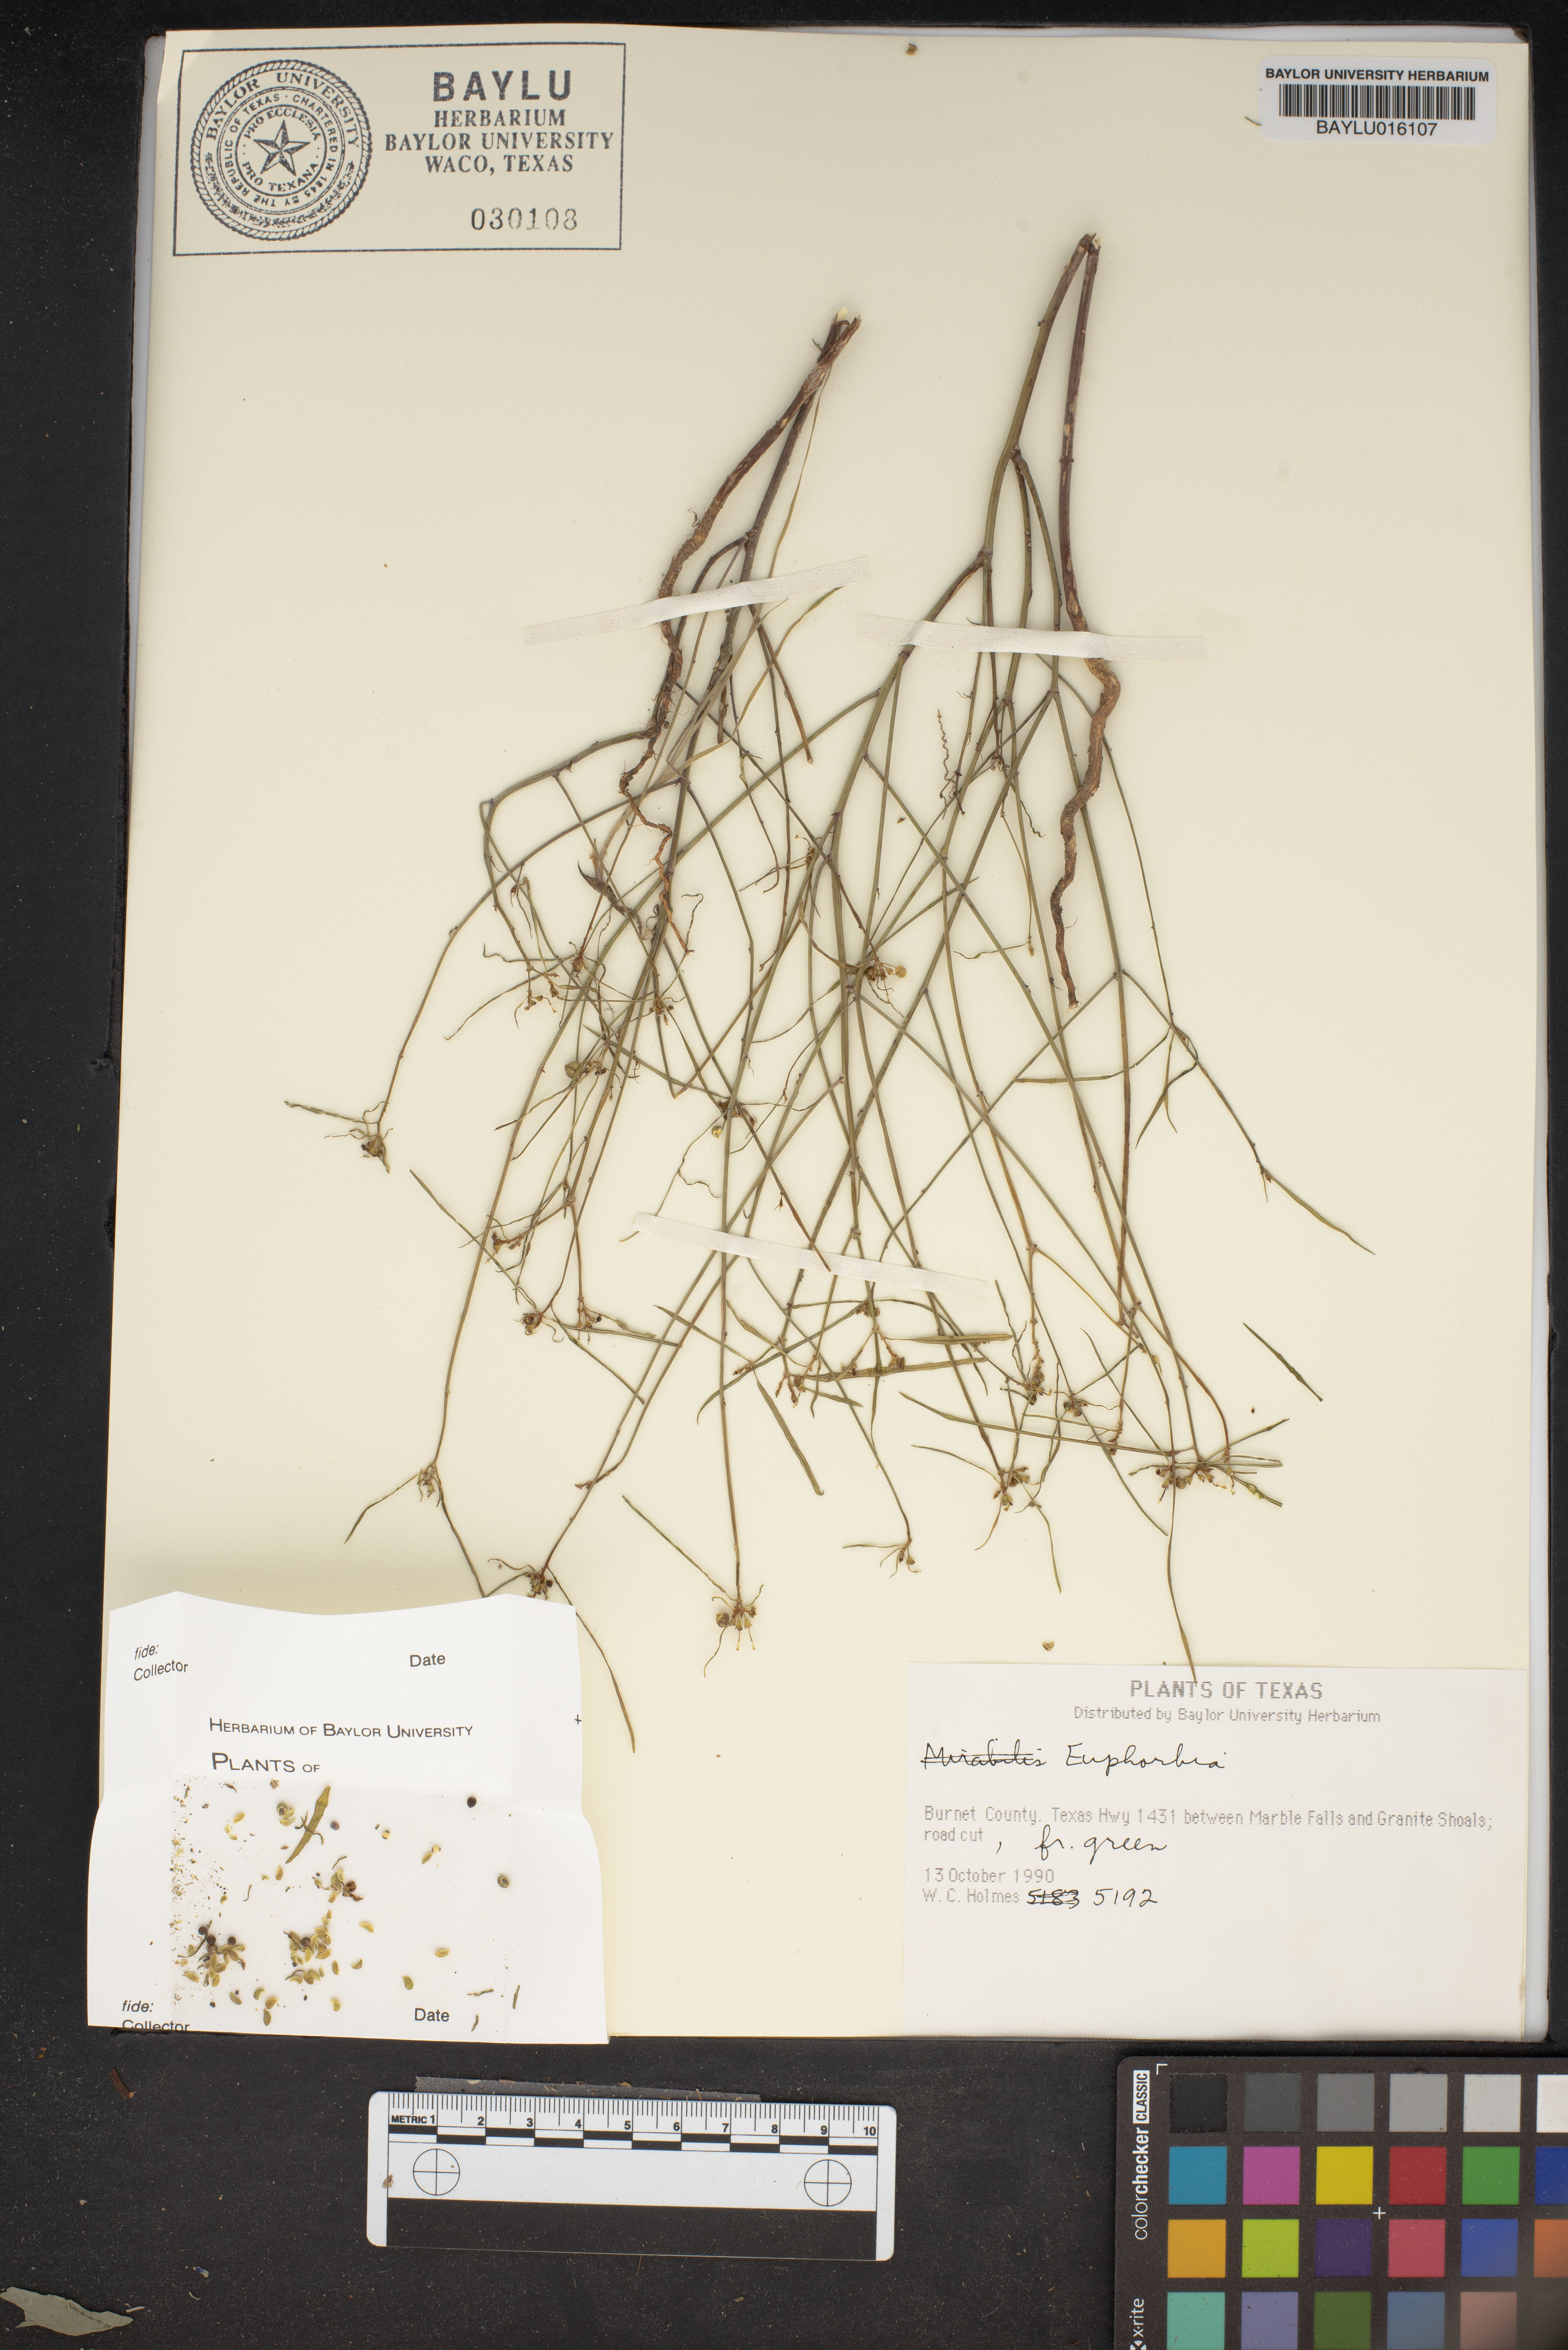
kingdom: Plantae
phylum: Tracheophyta
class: Magnoliopsida
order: Malpighiales
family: Euphorbiaceae
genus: Euphorbia
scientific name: Euphorbia
